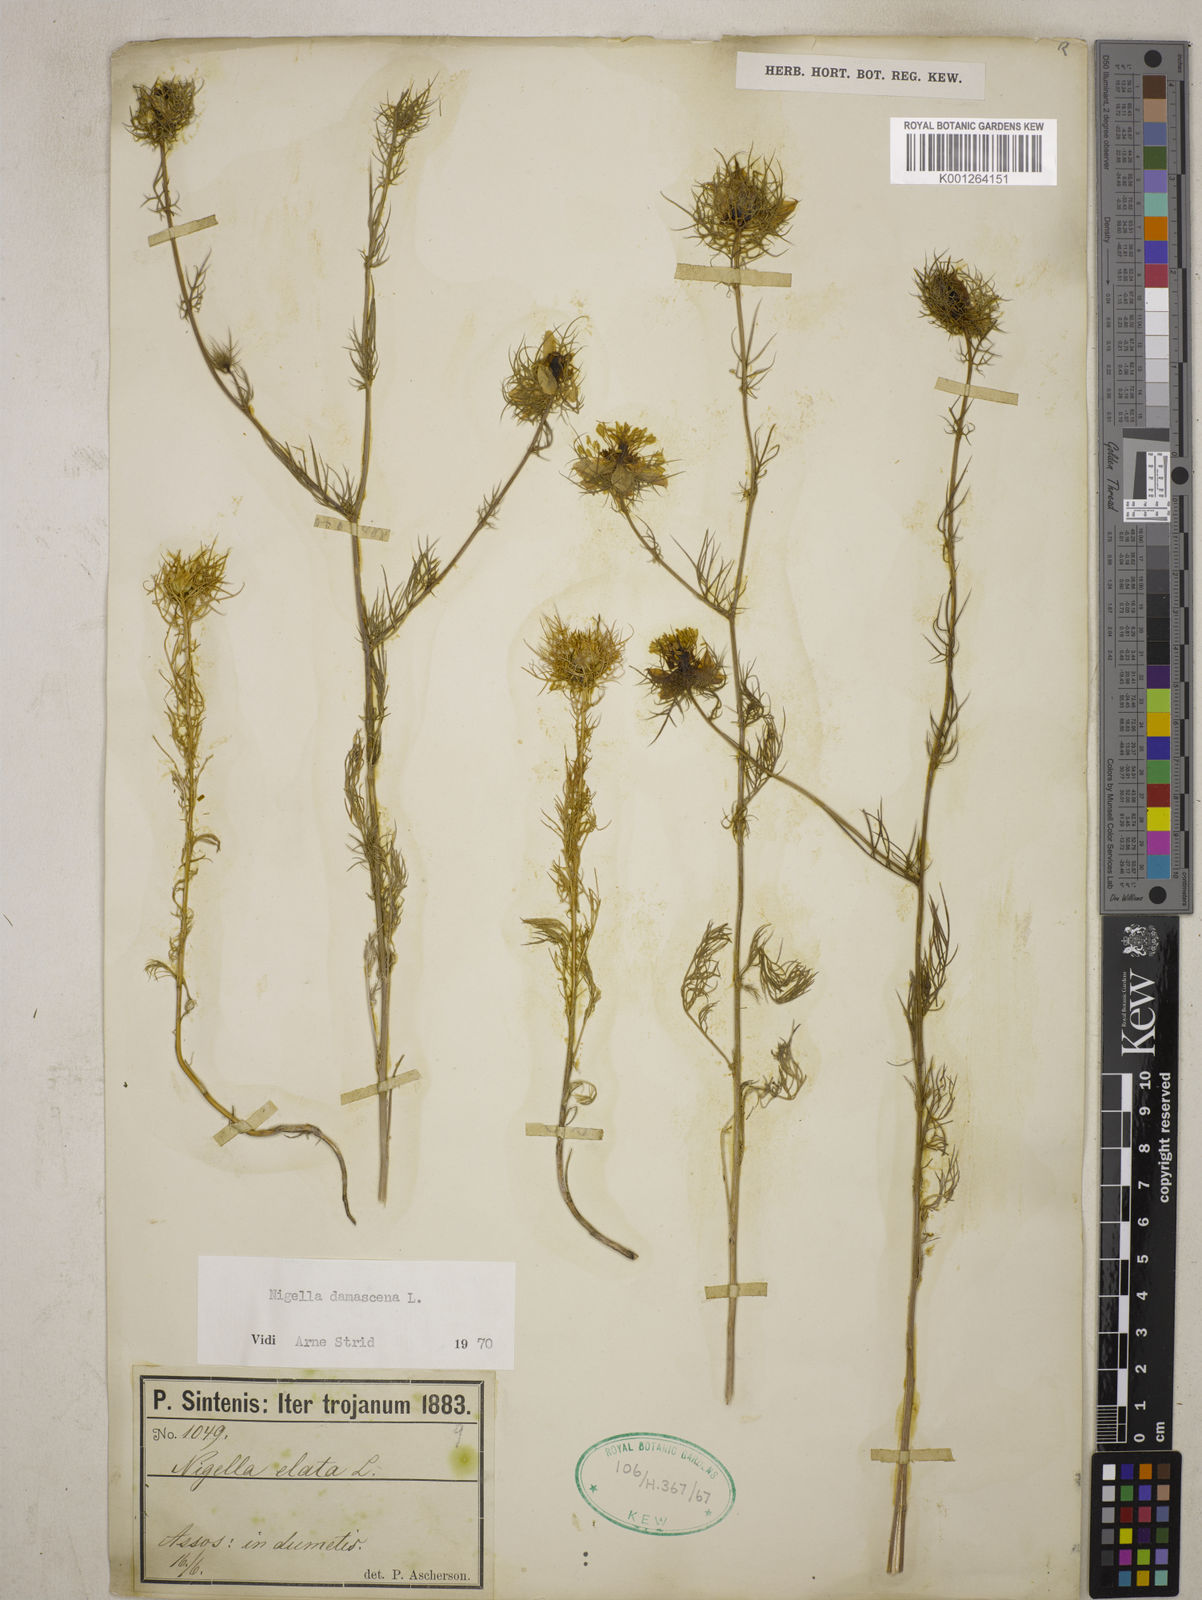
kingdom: Plantae
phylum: Tracheophyta
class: Magnoliopsida
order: Ranunculales
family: Ranunculaceae
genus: Nigella
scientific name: Nigella damascena
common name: Love-in-a-mist
